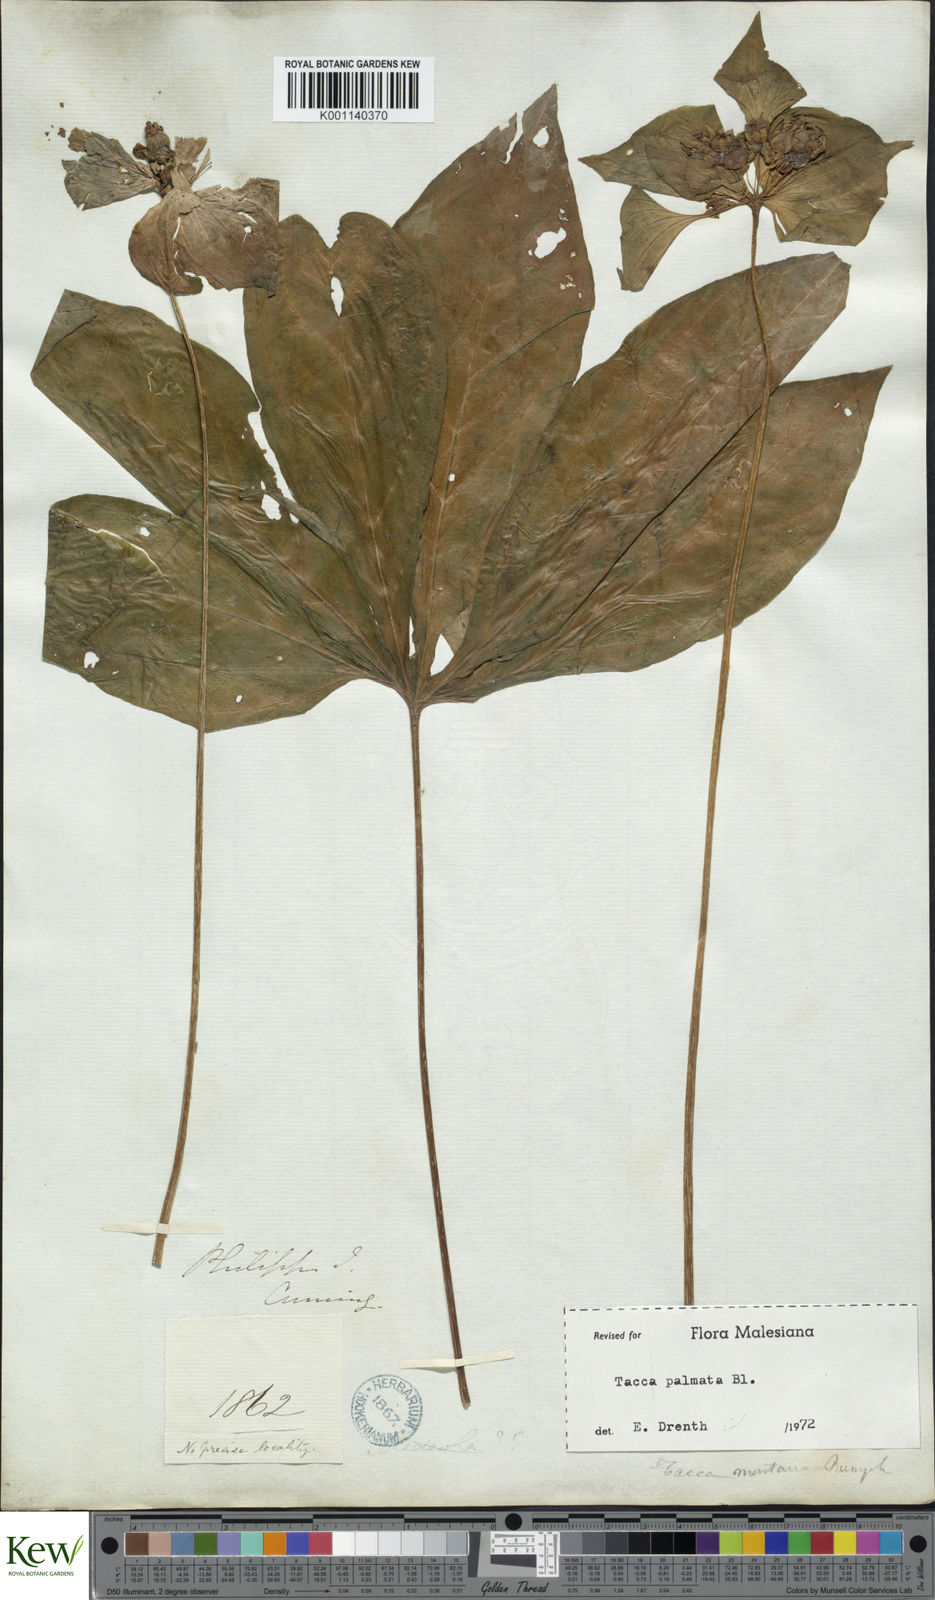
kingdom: Plantae
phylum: Tracheophyta
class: Liliopsida
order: Dioscoreales
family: Dioscoreaceae
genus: Tacca
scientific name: Tacca palmata
